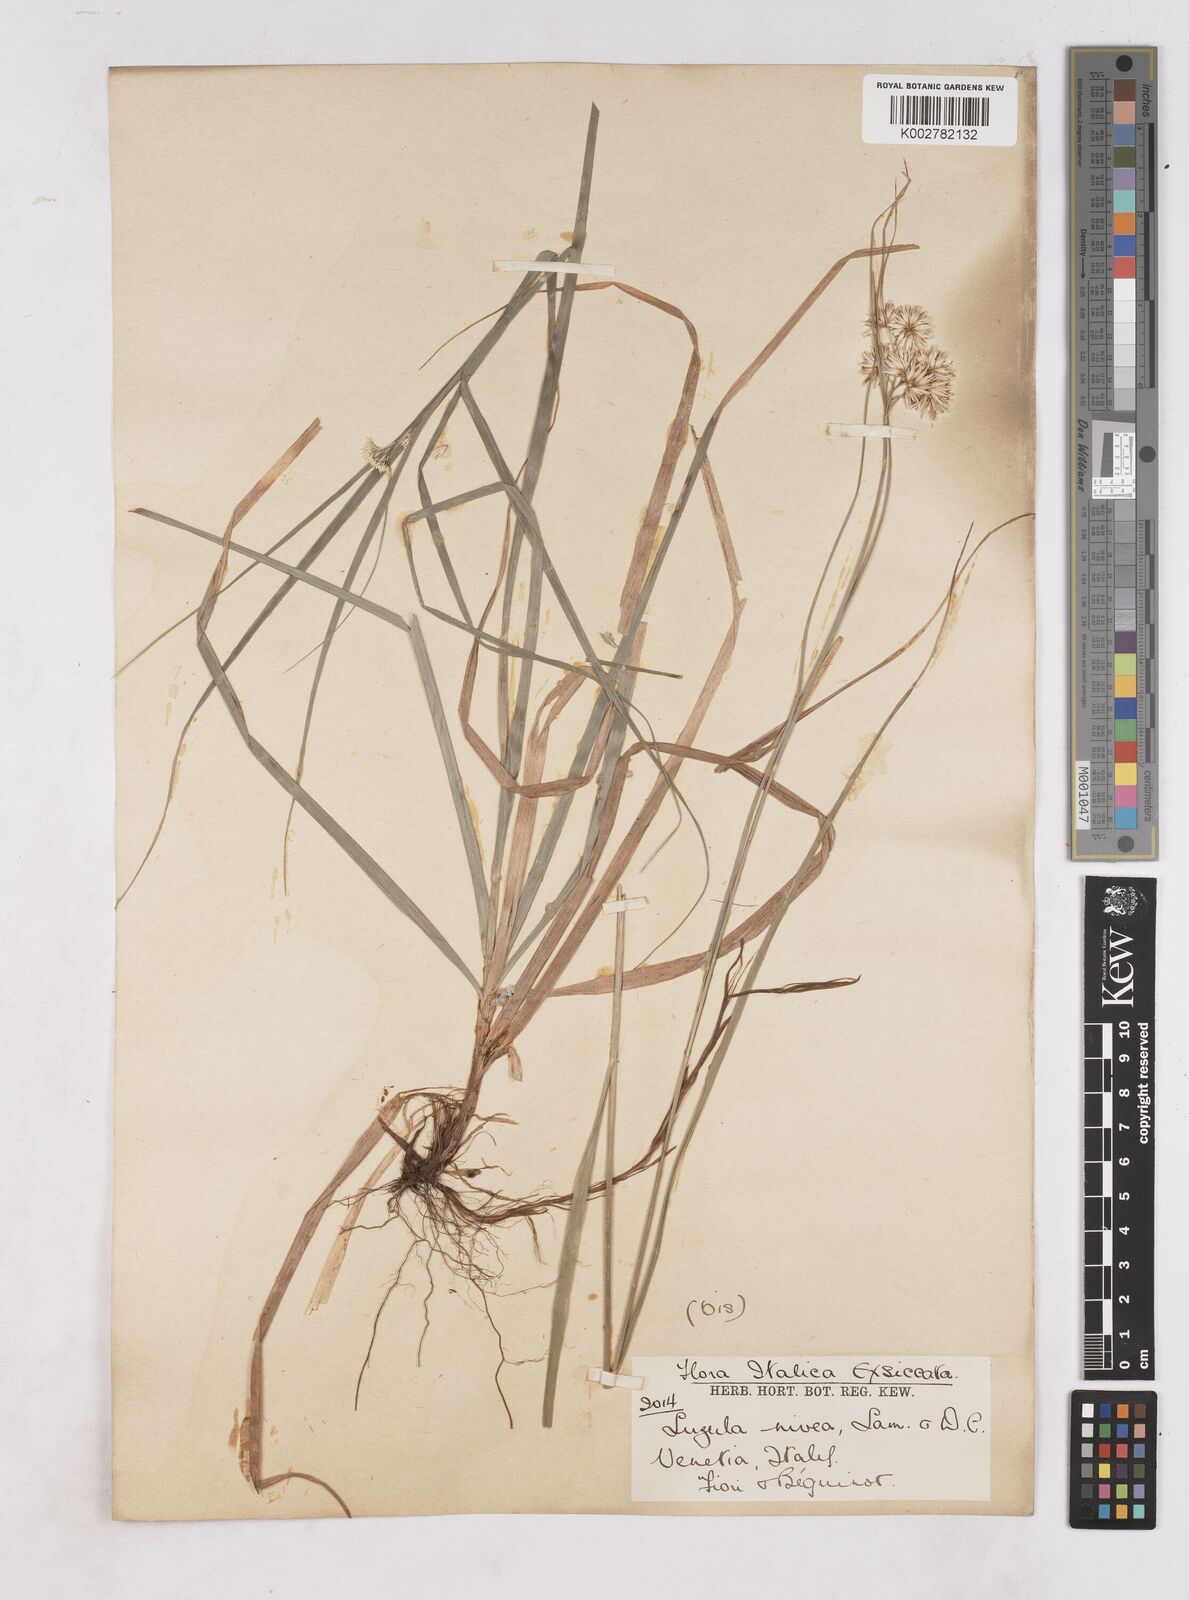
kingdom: Plantae
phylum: Tracheophyta
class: Liliopsida
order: Poales
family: Juncaceae
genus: Luzula
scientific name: Luzula nivea
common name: Snow-white wood-rush
